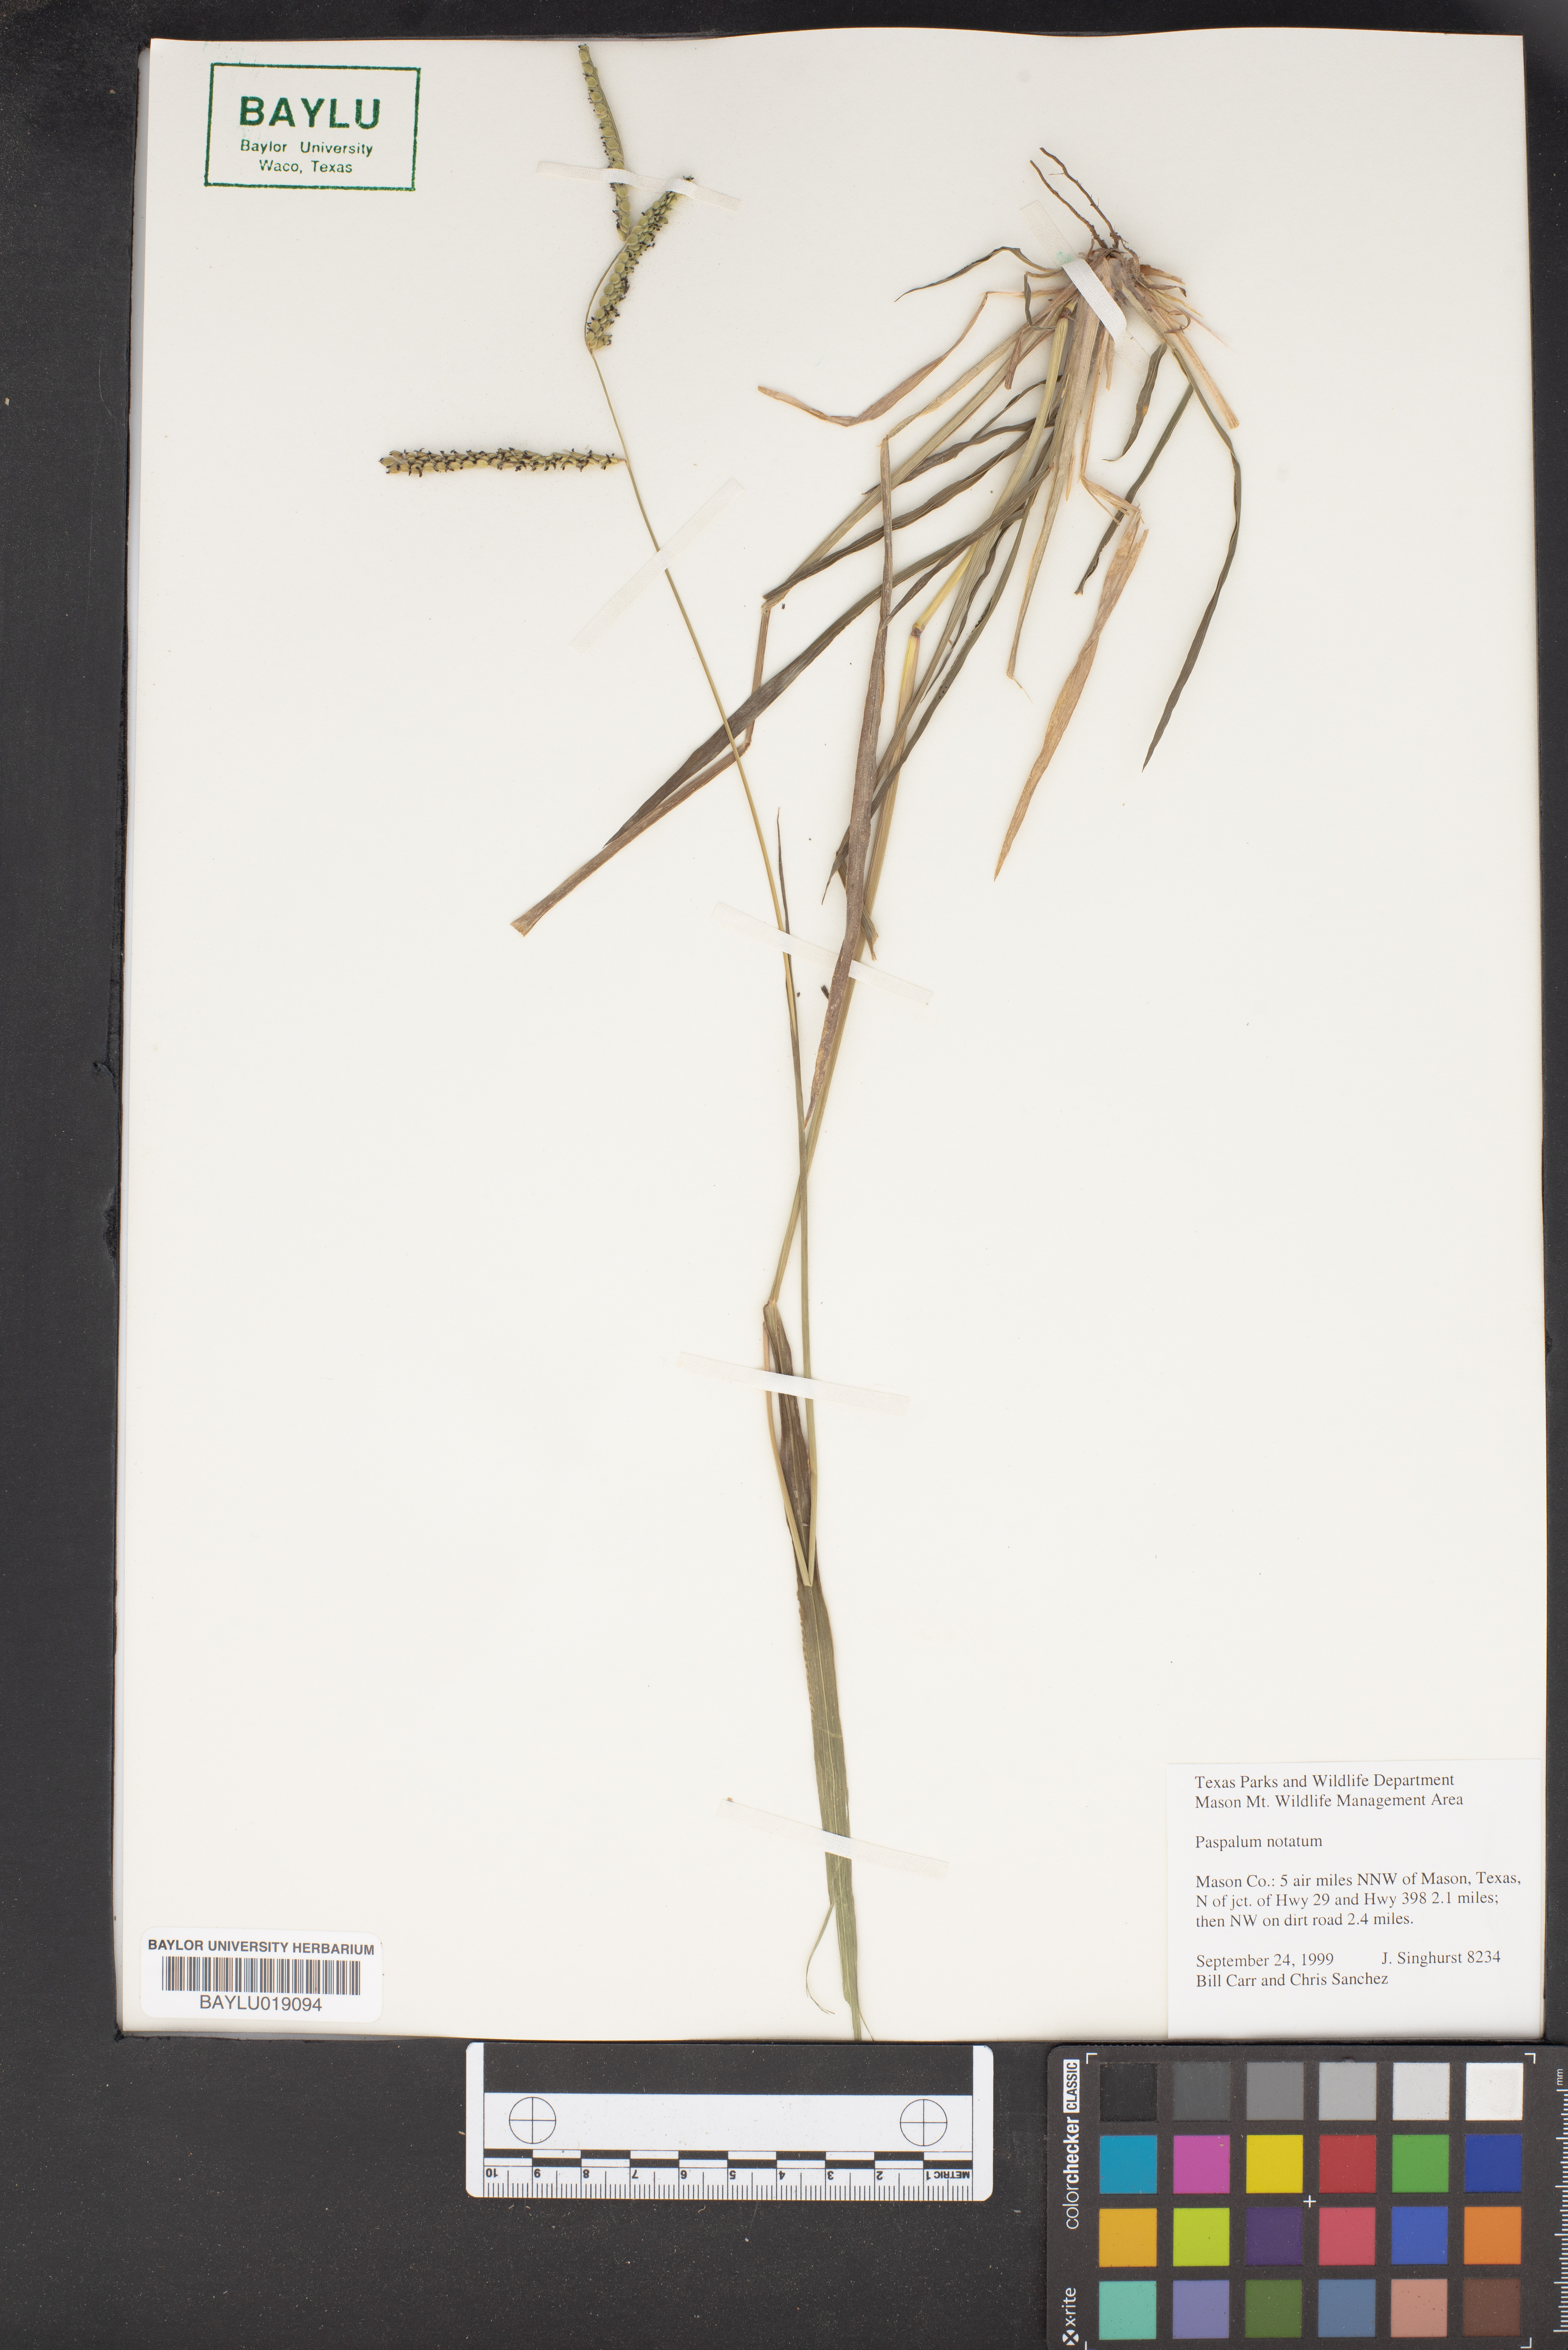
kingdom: Plantae
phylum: Tracheophyta
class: Liliopsida
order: Poales
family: Poaceae
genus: Paspalum
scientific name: Paspalum notatum
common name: Bahiagrass
